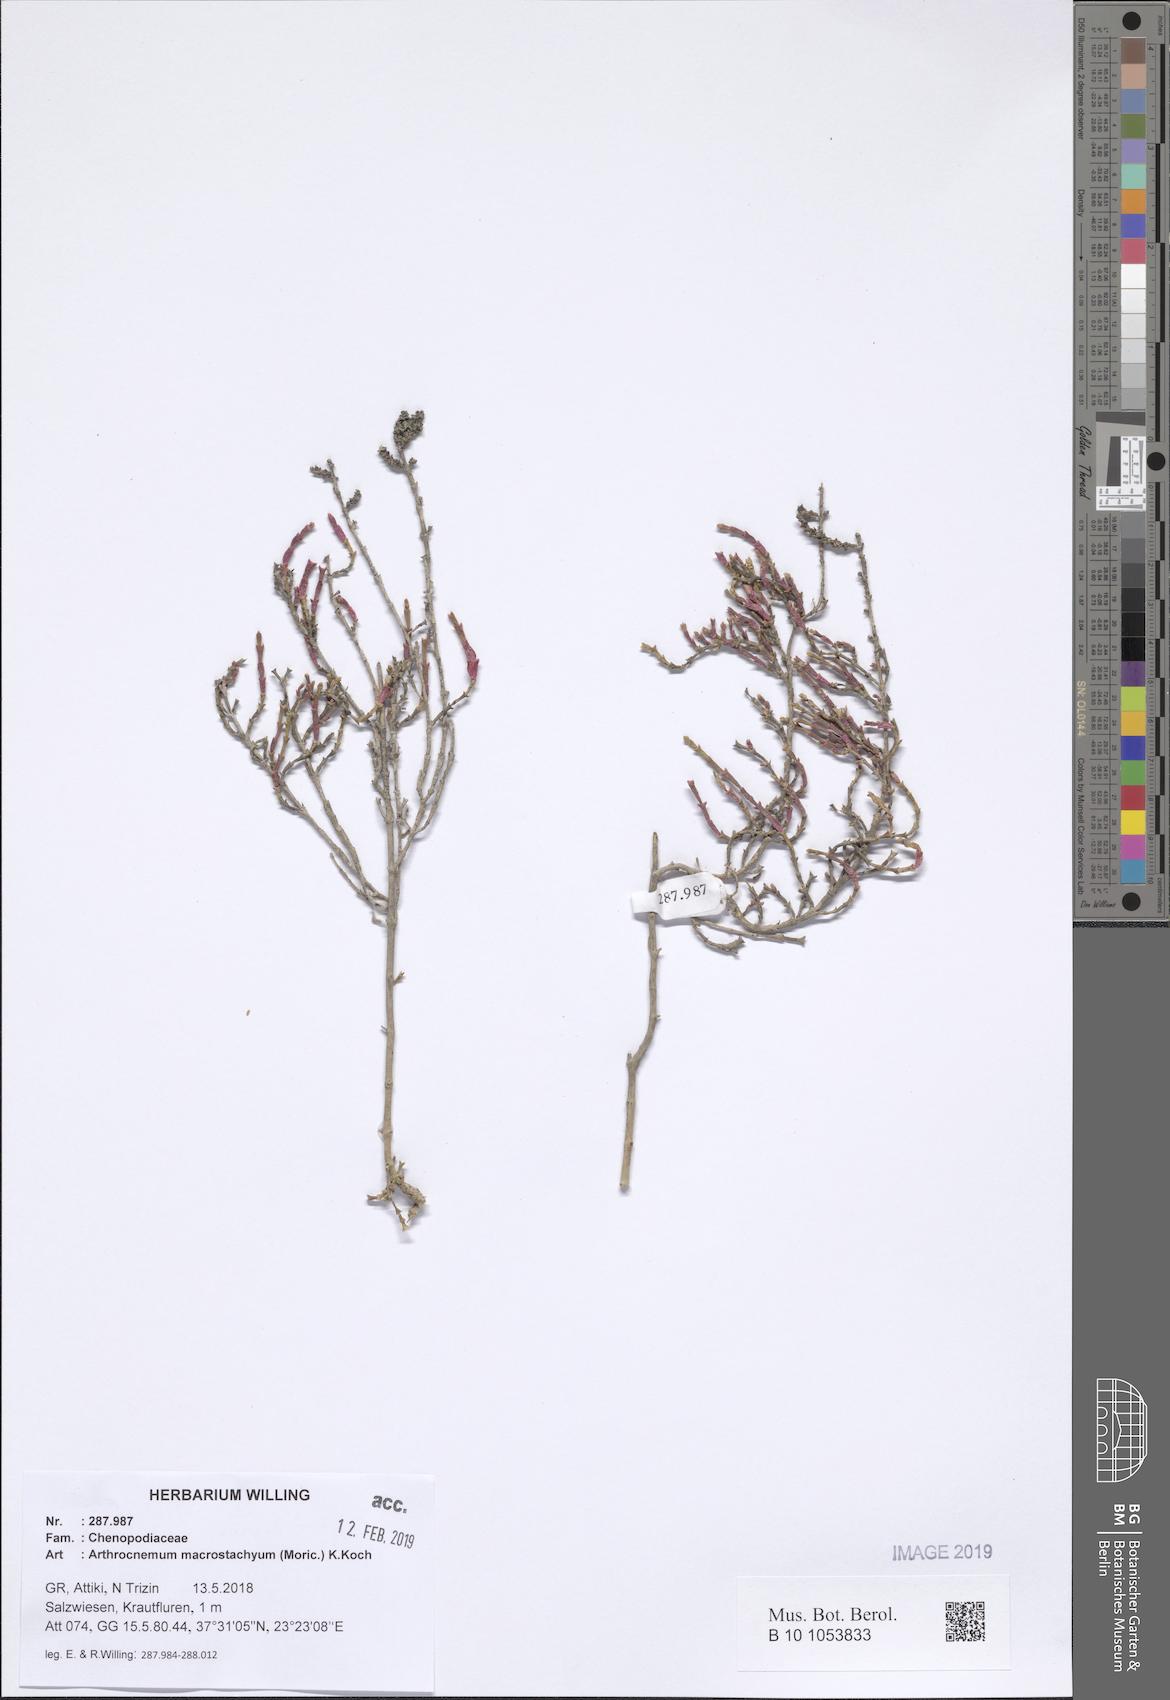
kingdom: Plantae
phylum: Tracheophyta
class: Magnoliopsida
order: Caryophyllales
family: Amaranthaceae
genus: Arthrocaulon
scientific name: Arthrocaulon macrostachyum
